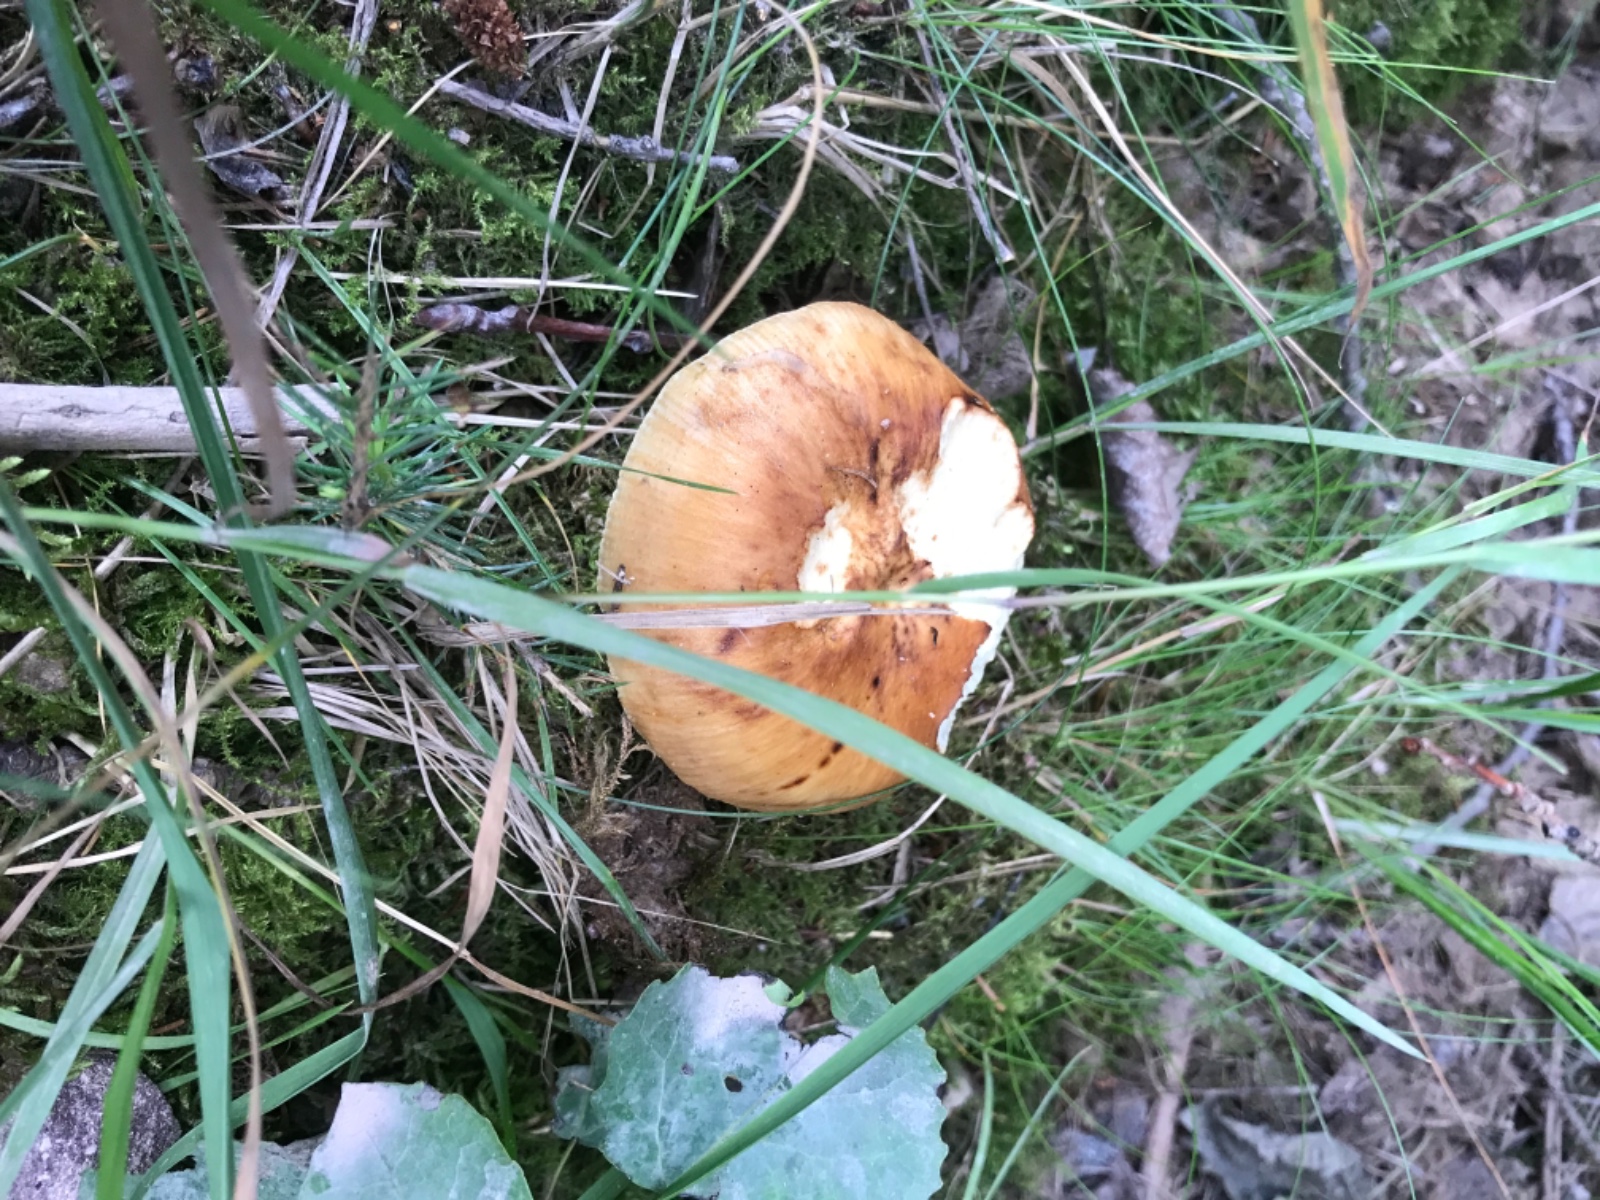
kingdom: Fungi
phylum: Basidiomycota
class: Agaricomycetes
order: Russulales
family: Russulaceae
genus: Russula
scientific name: Russula recondita
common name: mild kam-skørhat
